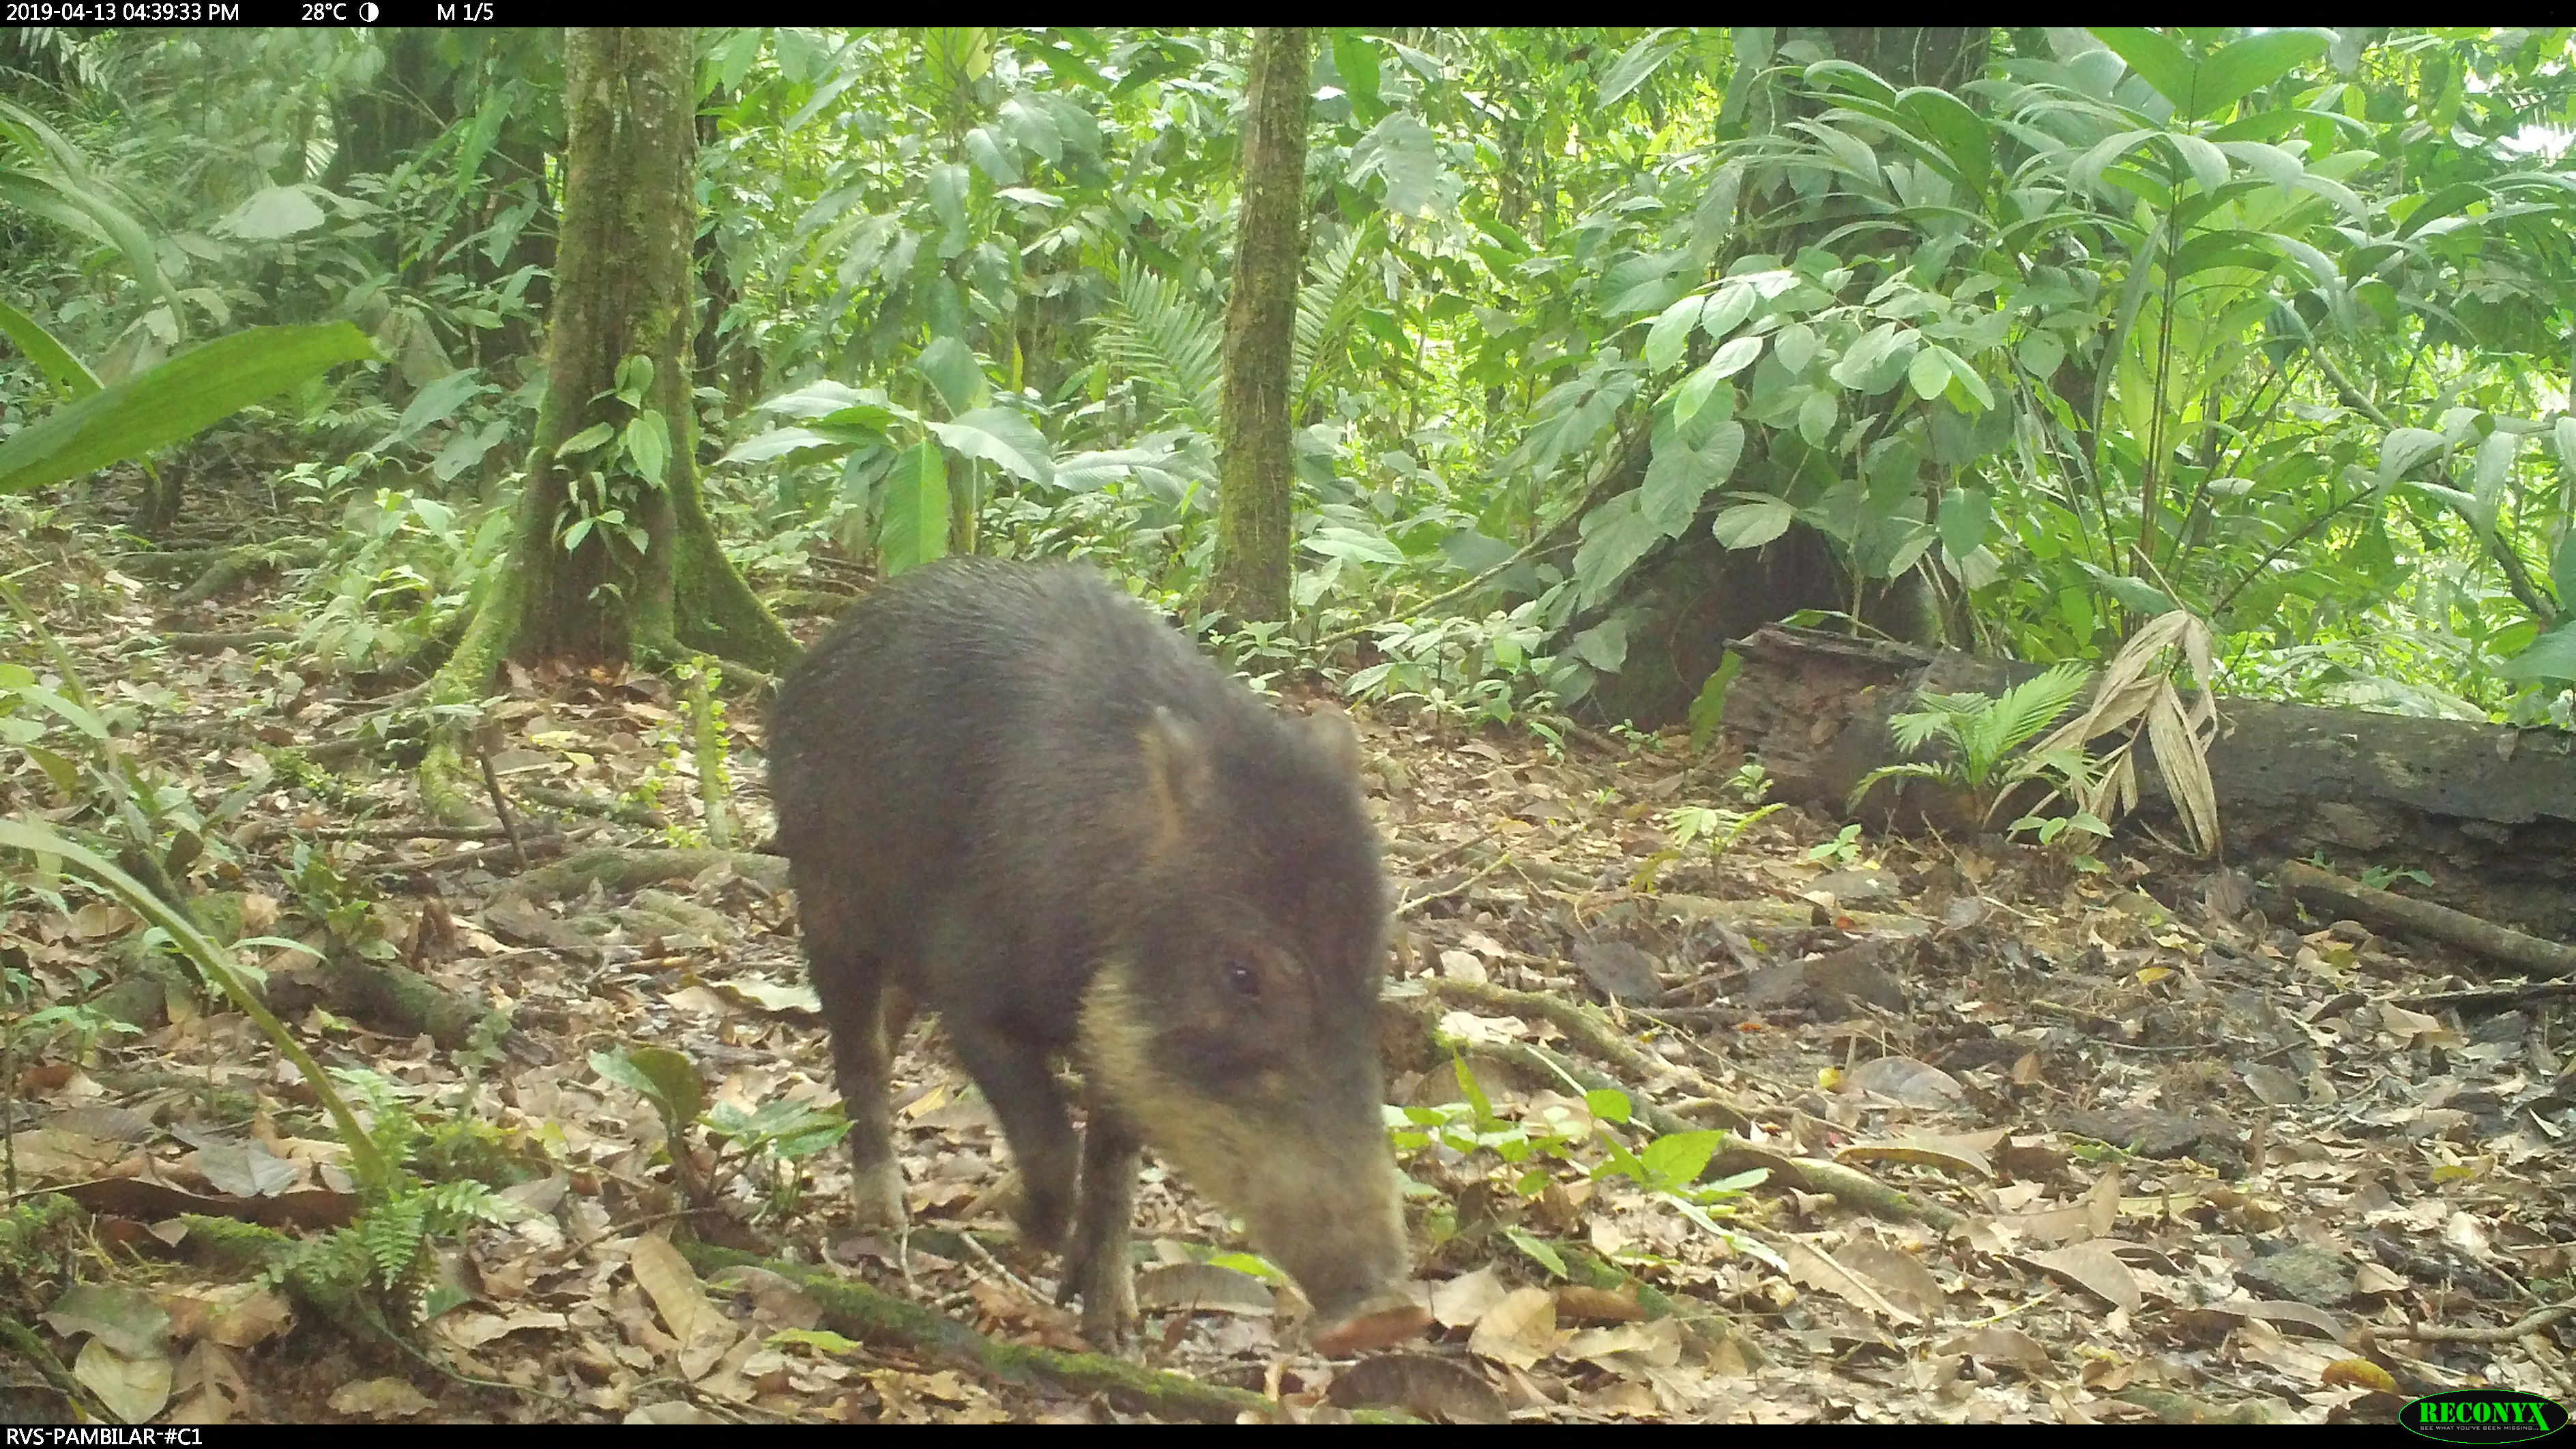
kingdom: Animalia
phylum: Chordata
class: Mammalia
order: Artiodactyla
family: Tayassuidae
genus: Tayassu
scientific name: Tayassu pecari
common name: White-lipped peccary
